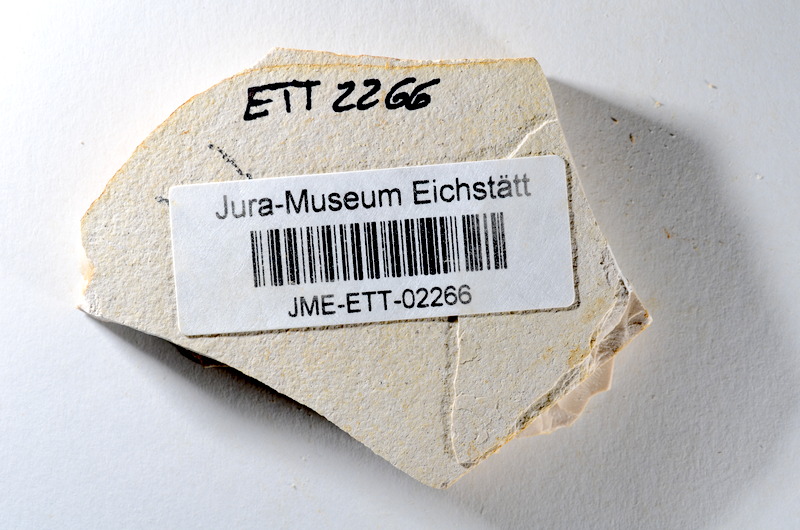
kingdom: Animalia
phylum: Chordata
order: Salmoniformes
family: Orthogonikleithridae
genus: Orthogonikleithrus
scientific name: Orthogonikleithrus hoelli
